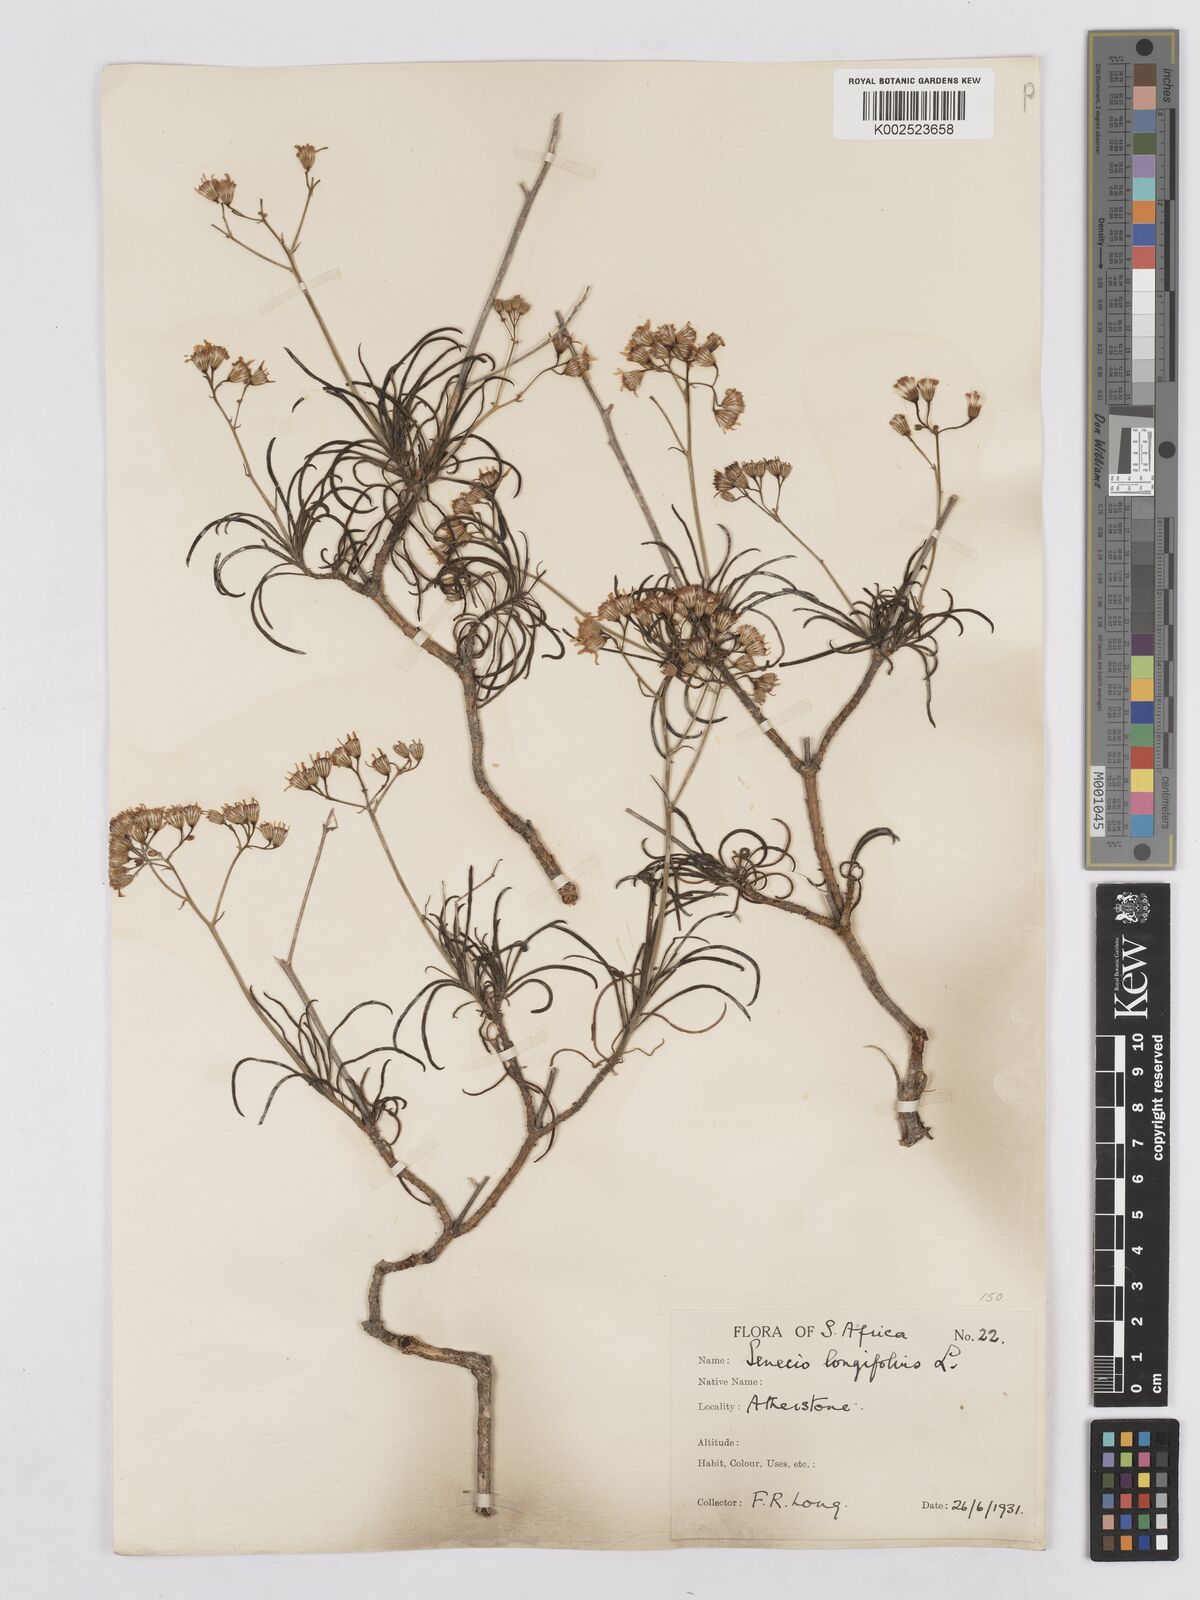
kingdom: Plantae
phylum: Tracheophyta
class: Magnoliopsida
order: Asterales
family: Asteraceae
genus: Senecio
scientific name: Senecio linifolius
